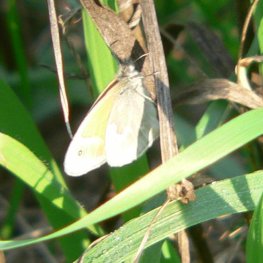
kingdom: Animalia
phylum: Arthropoda
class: Insecta
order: Lepidoptera
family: Nymphalidae
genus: Coenonympha
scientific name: Coenonympha tullia
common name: Large Heath
